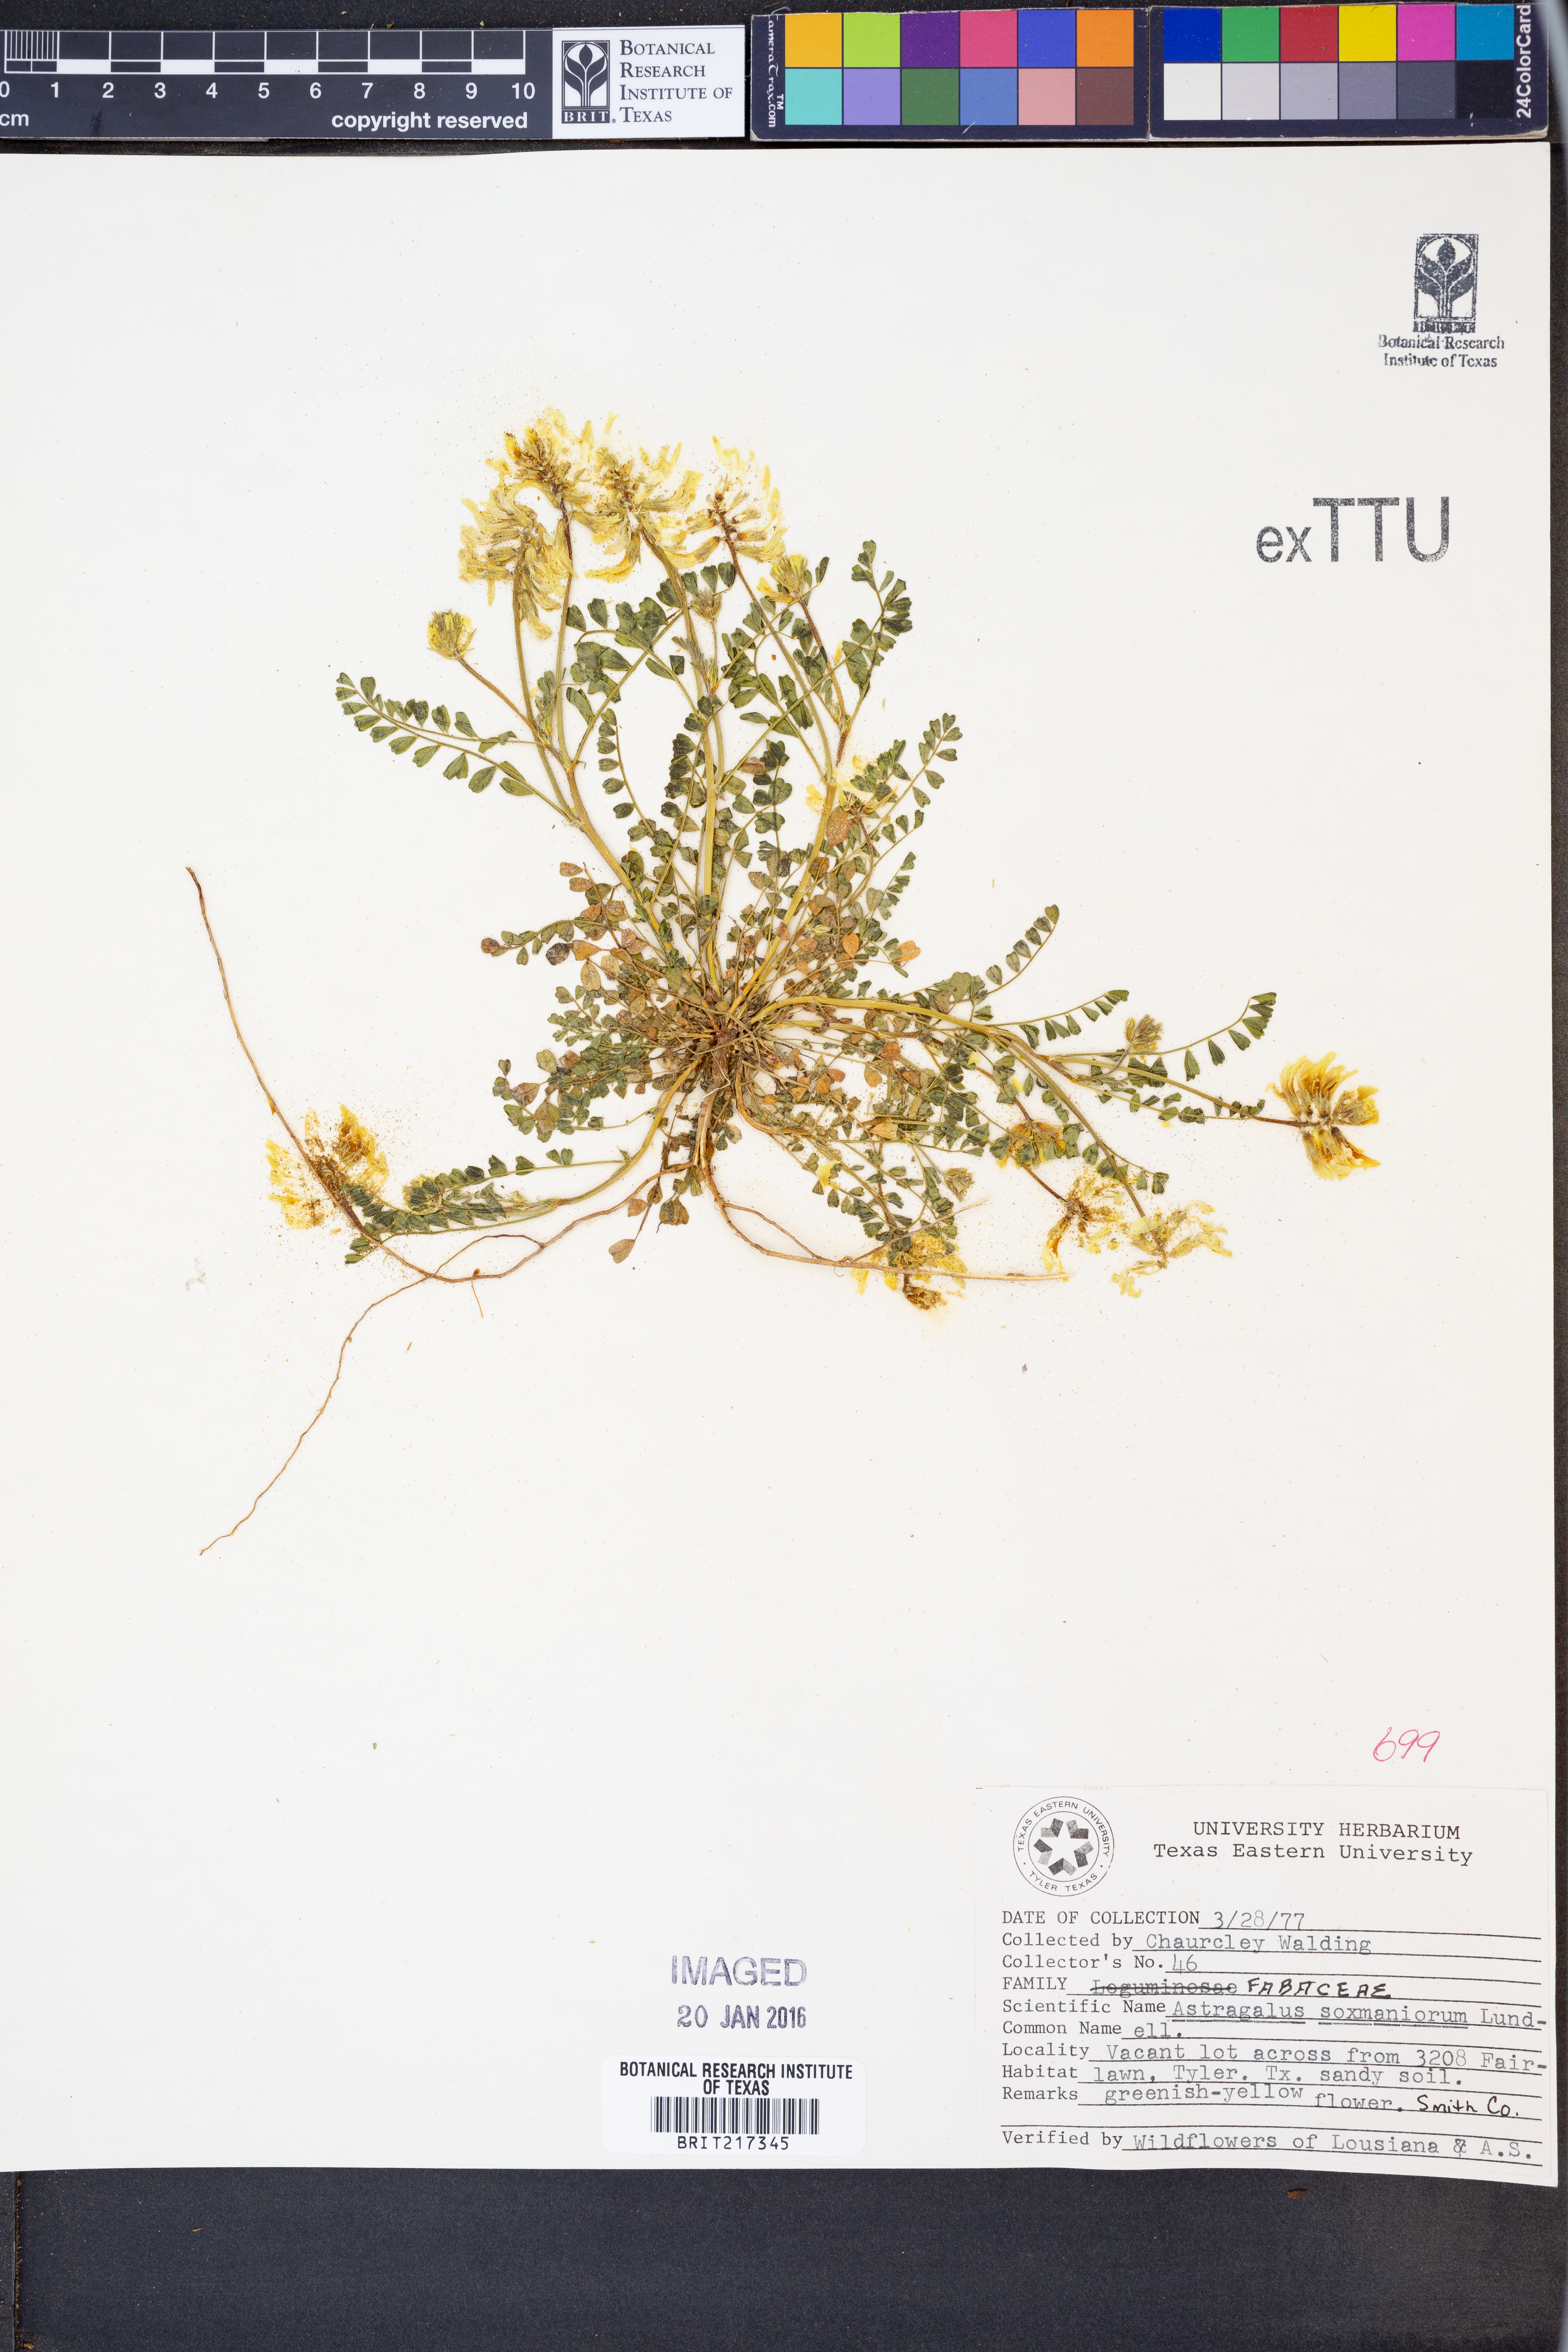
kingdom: Plantae
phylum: Tracheophyta
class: Magnoliopsida
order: Fabales
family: Fabaceae
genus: Astragalus
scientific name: Astragalus soxmaniorum
